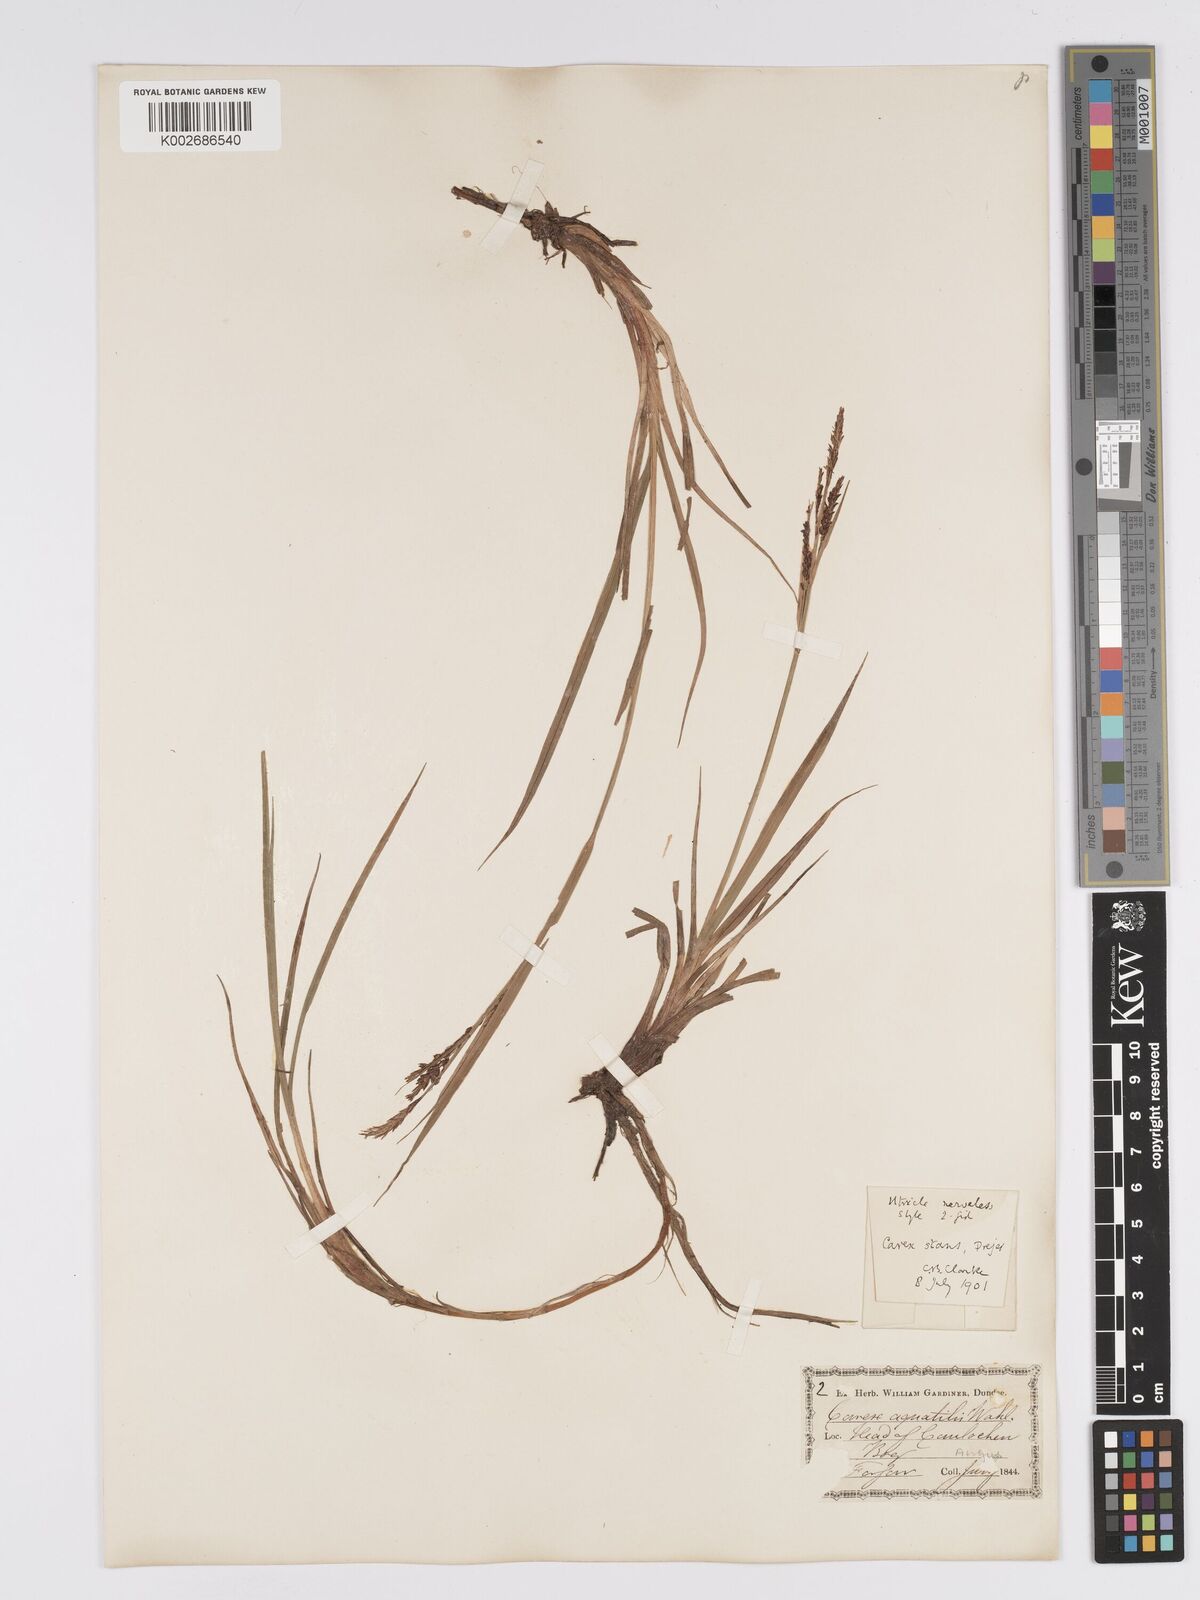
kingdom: Plantae
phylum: Tracheophyta
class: Liliopsida
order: Poales
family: Cyperaceae
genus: Carex
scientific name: Carex aquatilis
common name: Water sedge
